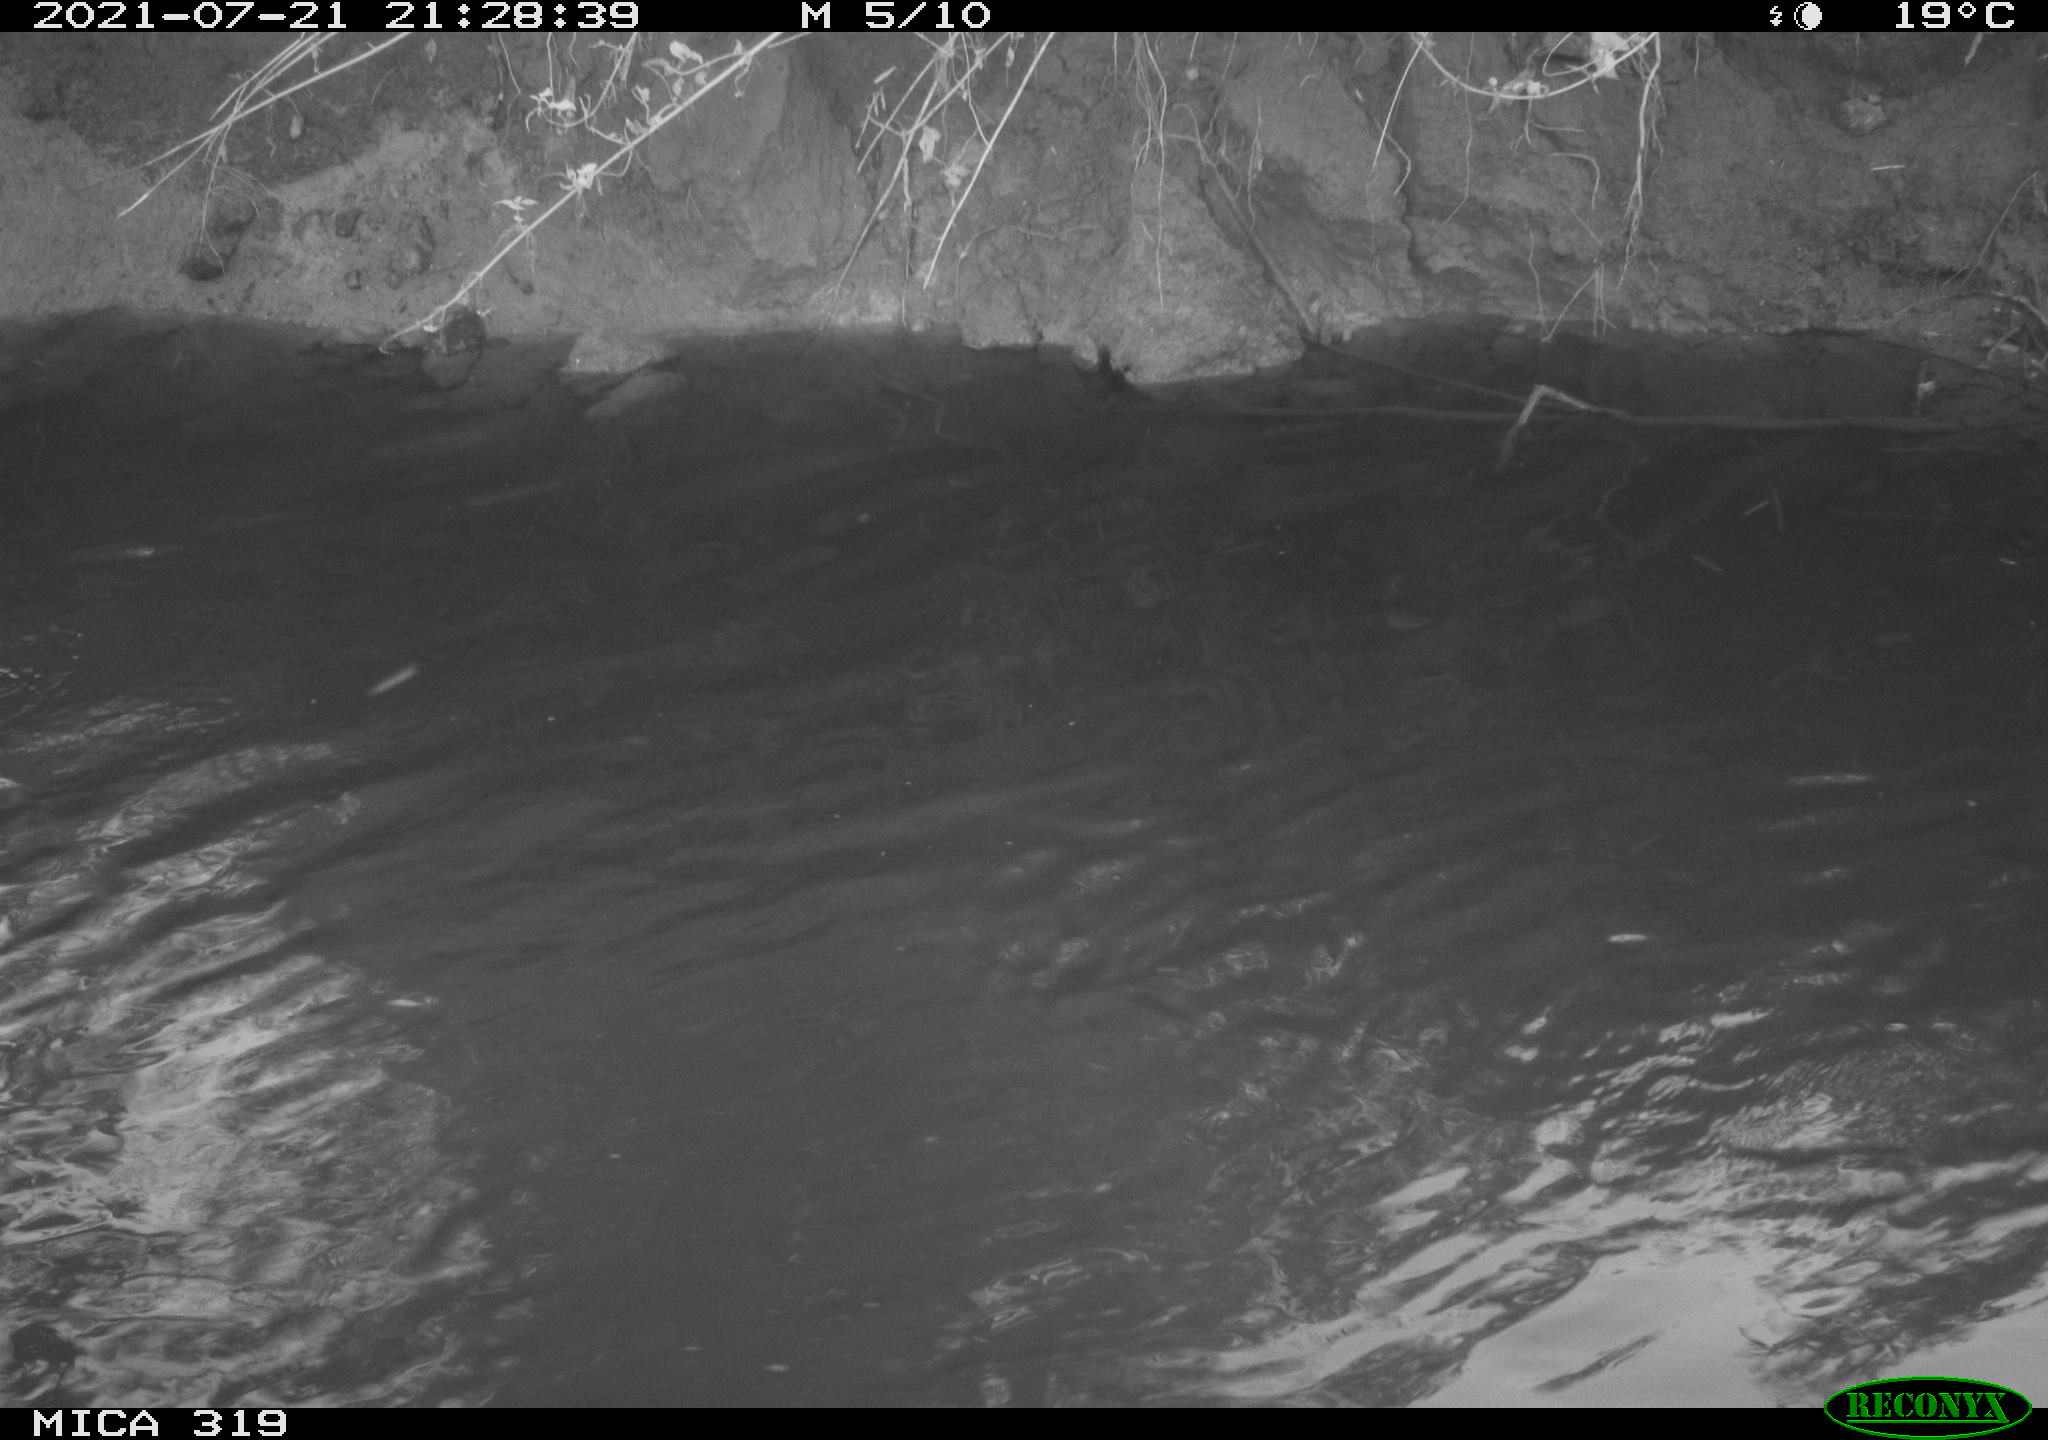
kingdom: Animalia
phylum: Chordata
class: Aves
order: Anseriformes
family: Anatidae
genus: Anas
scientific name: Anas platyrhynchos
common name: Mallard
